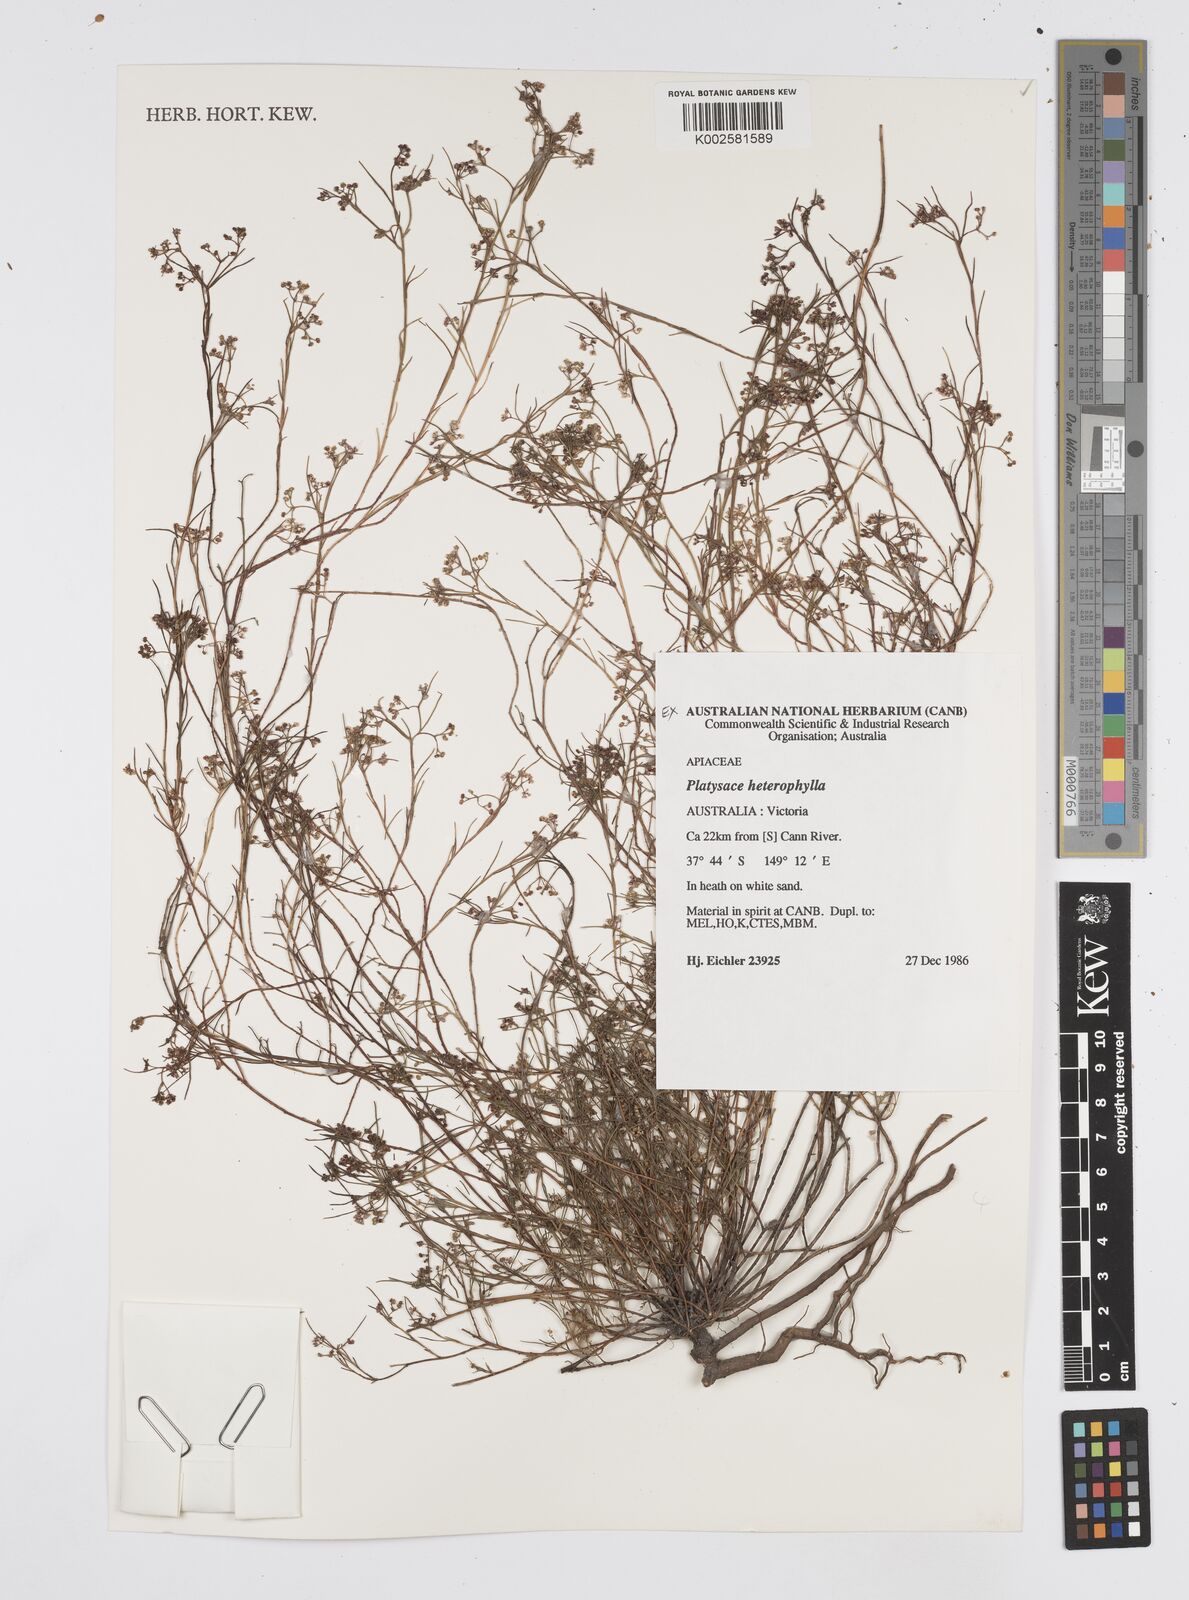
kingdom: Plantae
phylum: Tracheophyta
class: Magnoliopsida
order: Apiales
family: Apiaceae
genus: Platysace
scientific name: Platysace heterophylla
